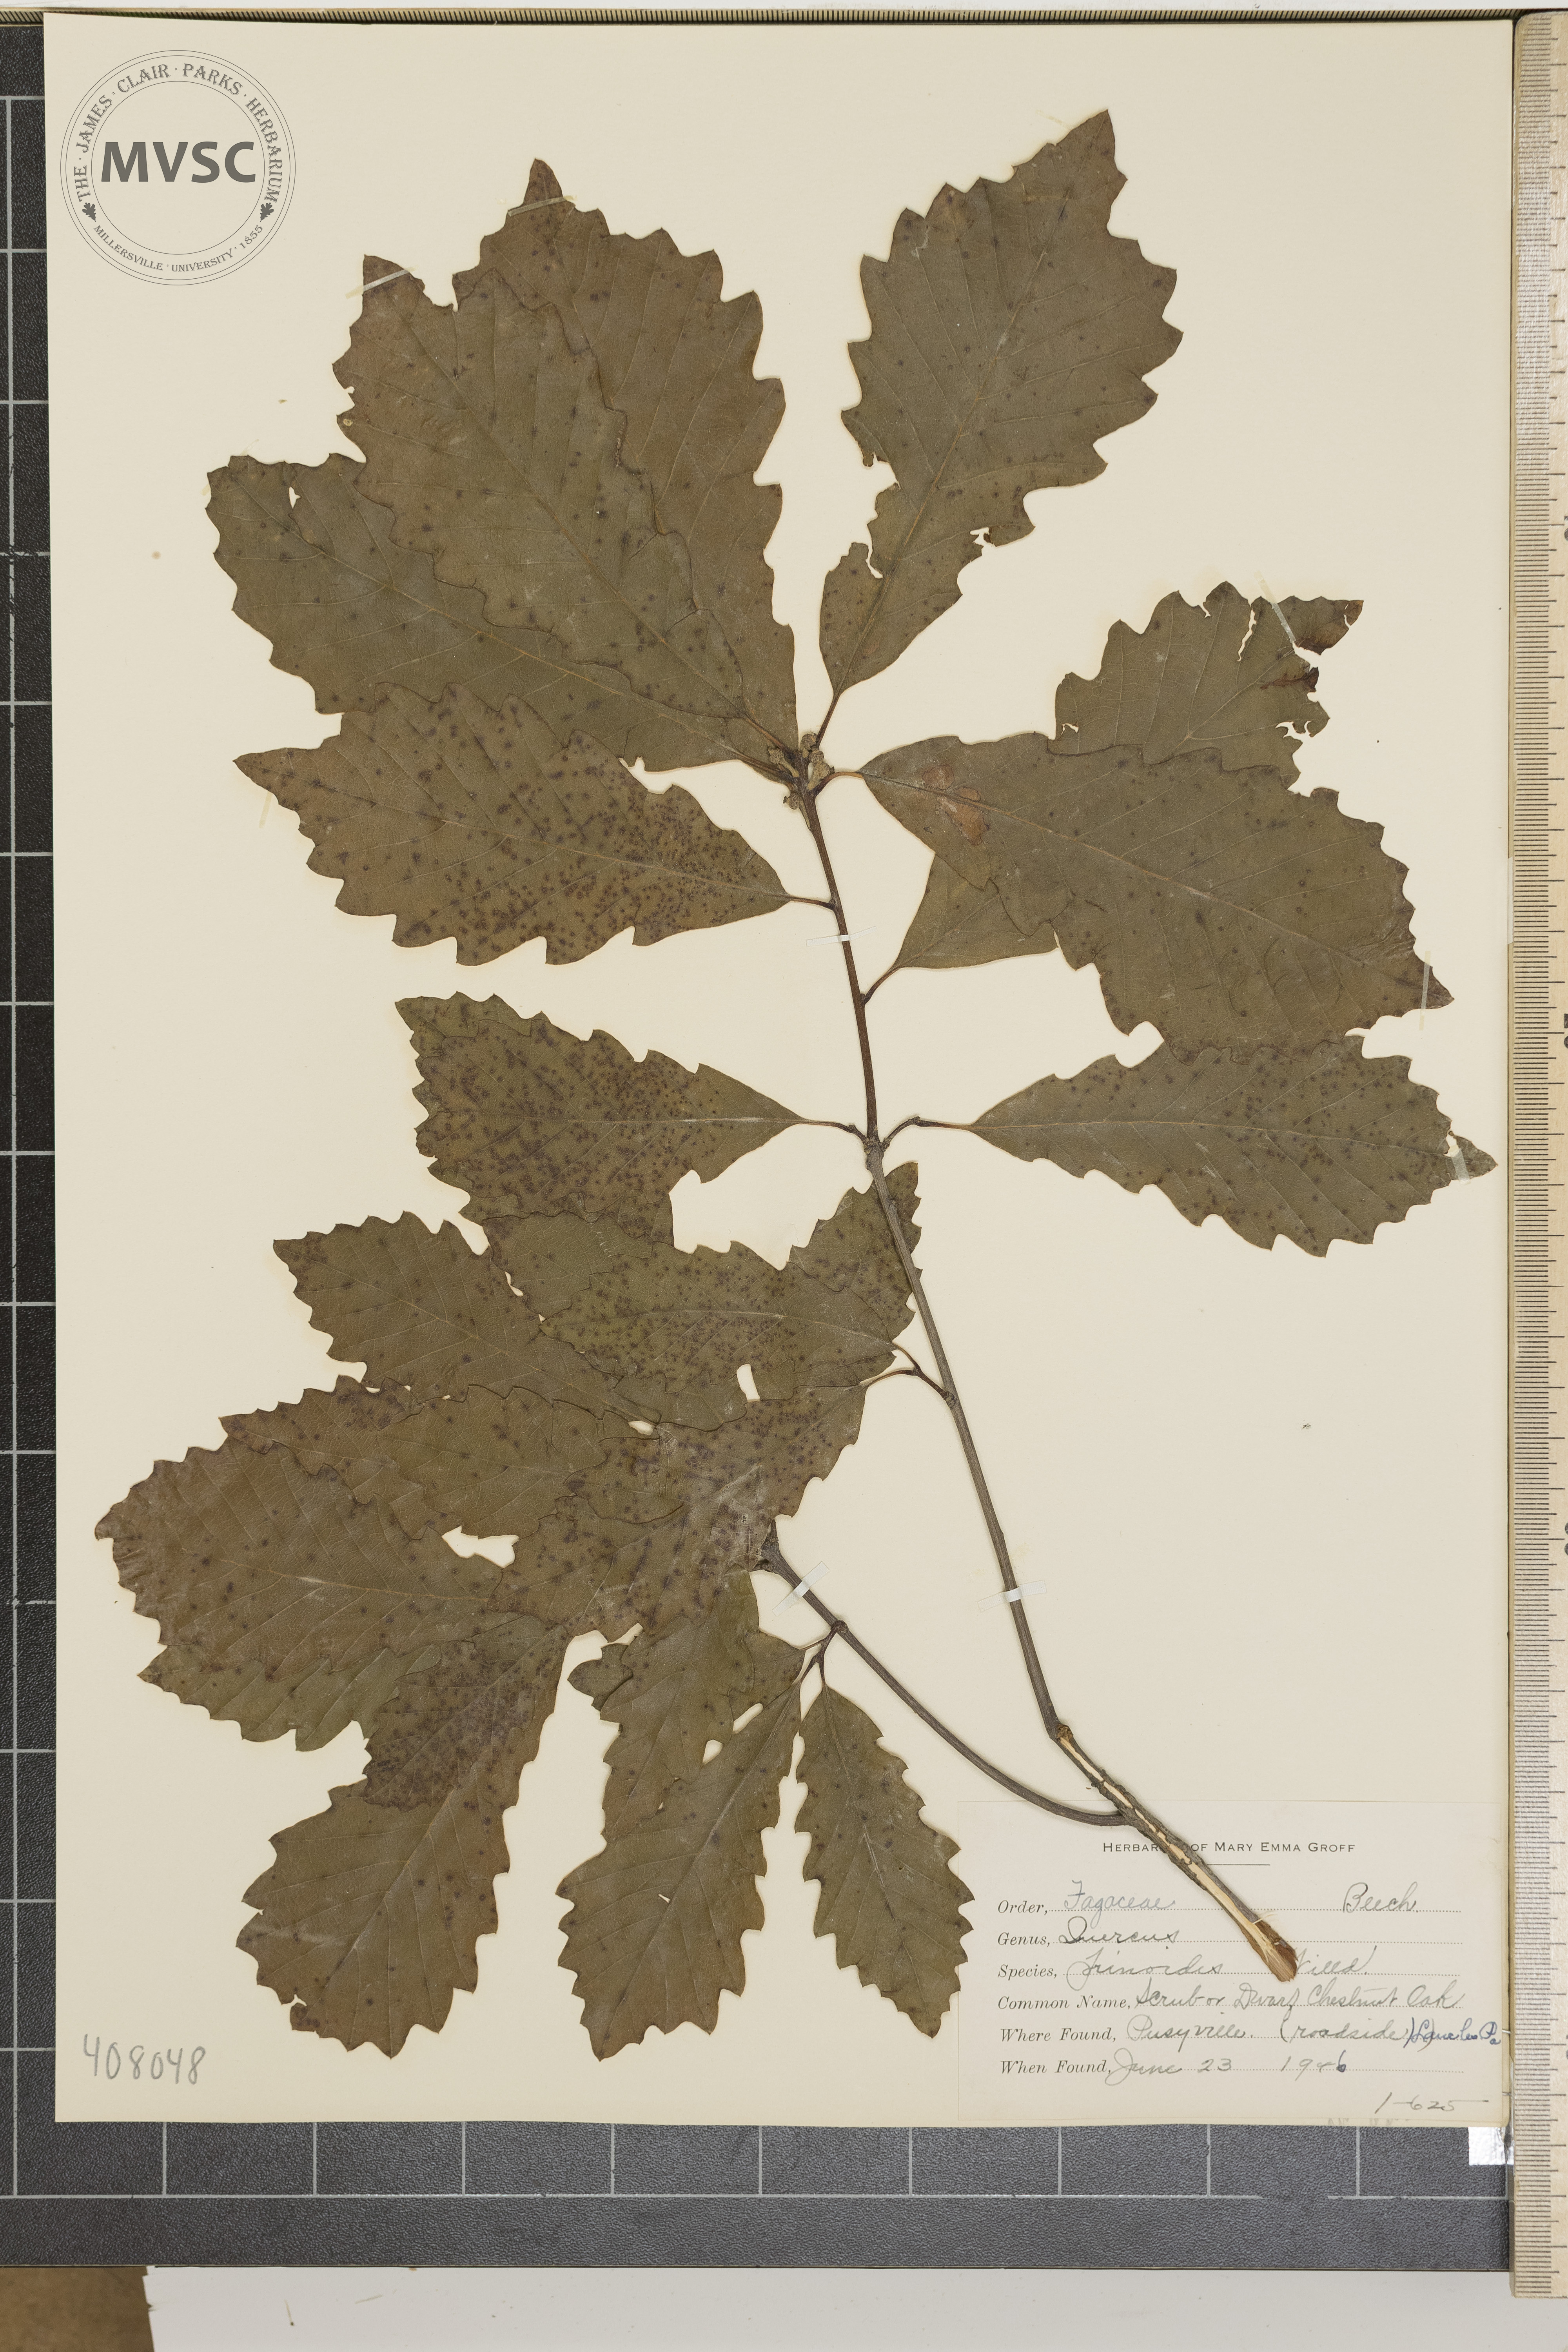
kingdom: Plantae
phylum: Tracheophyta
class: Magnoliopsida
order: Fagales
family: Fagaceae
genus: Quercus
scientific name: Quercus prinoides
